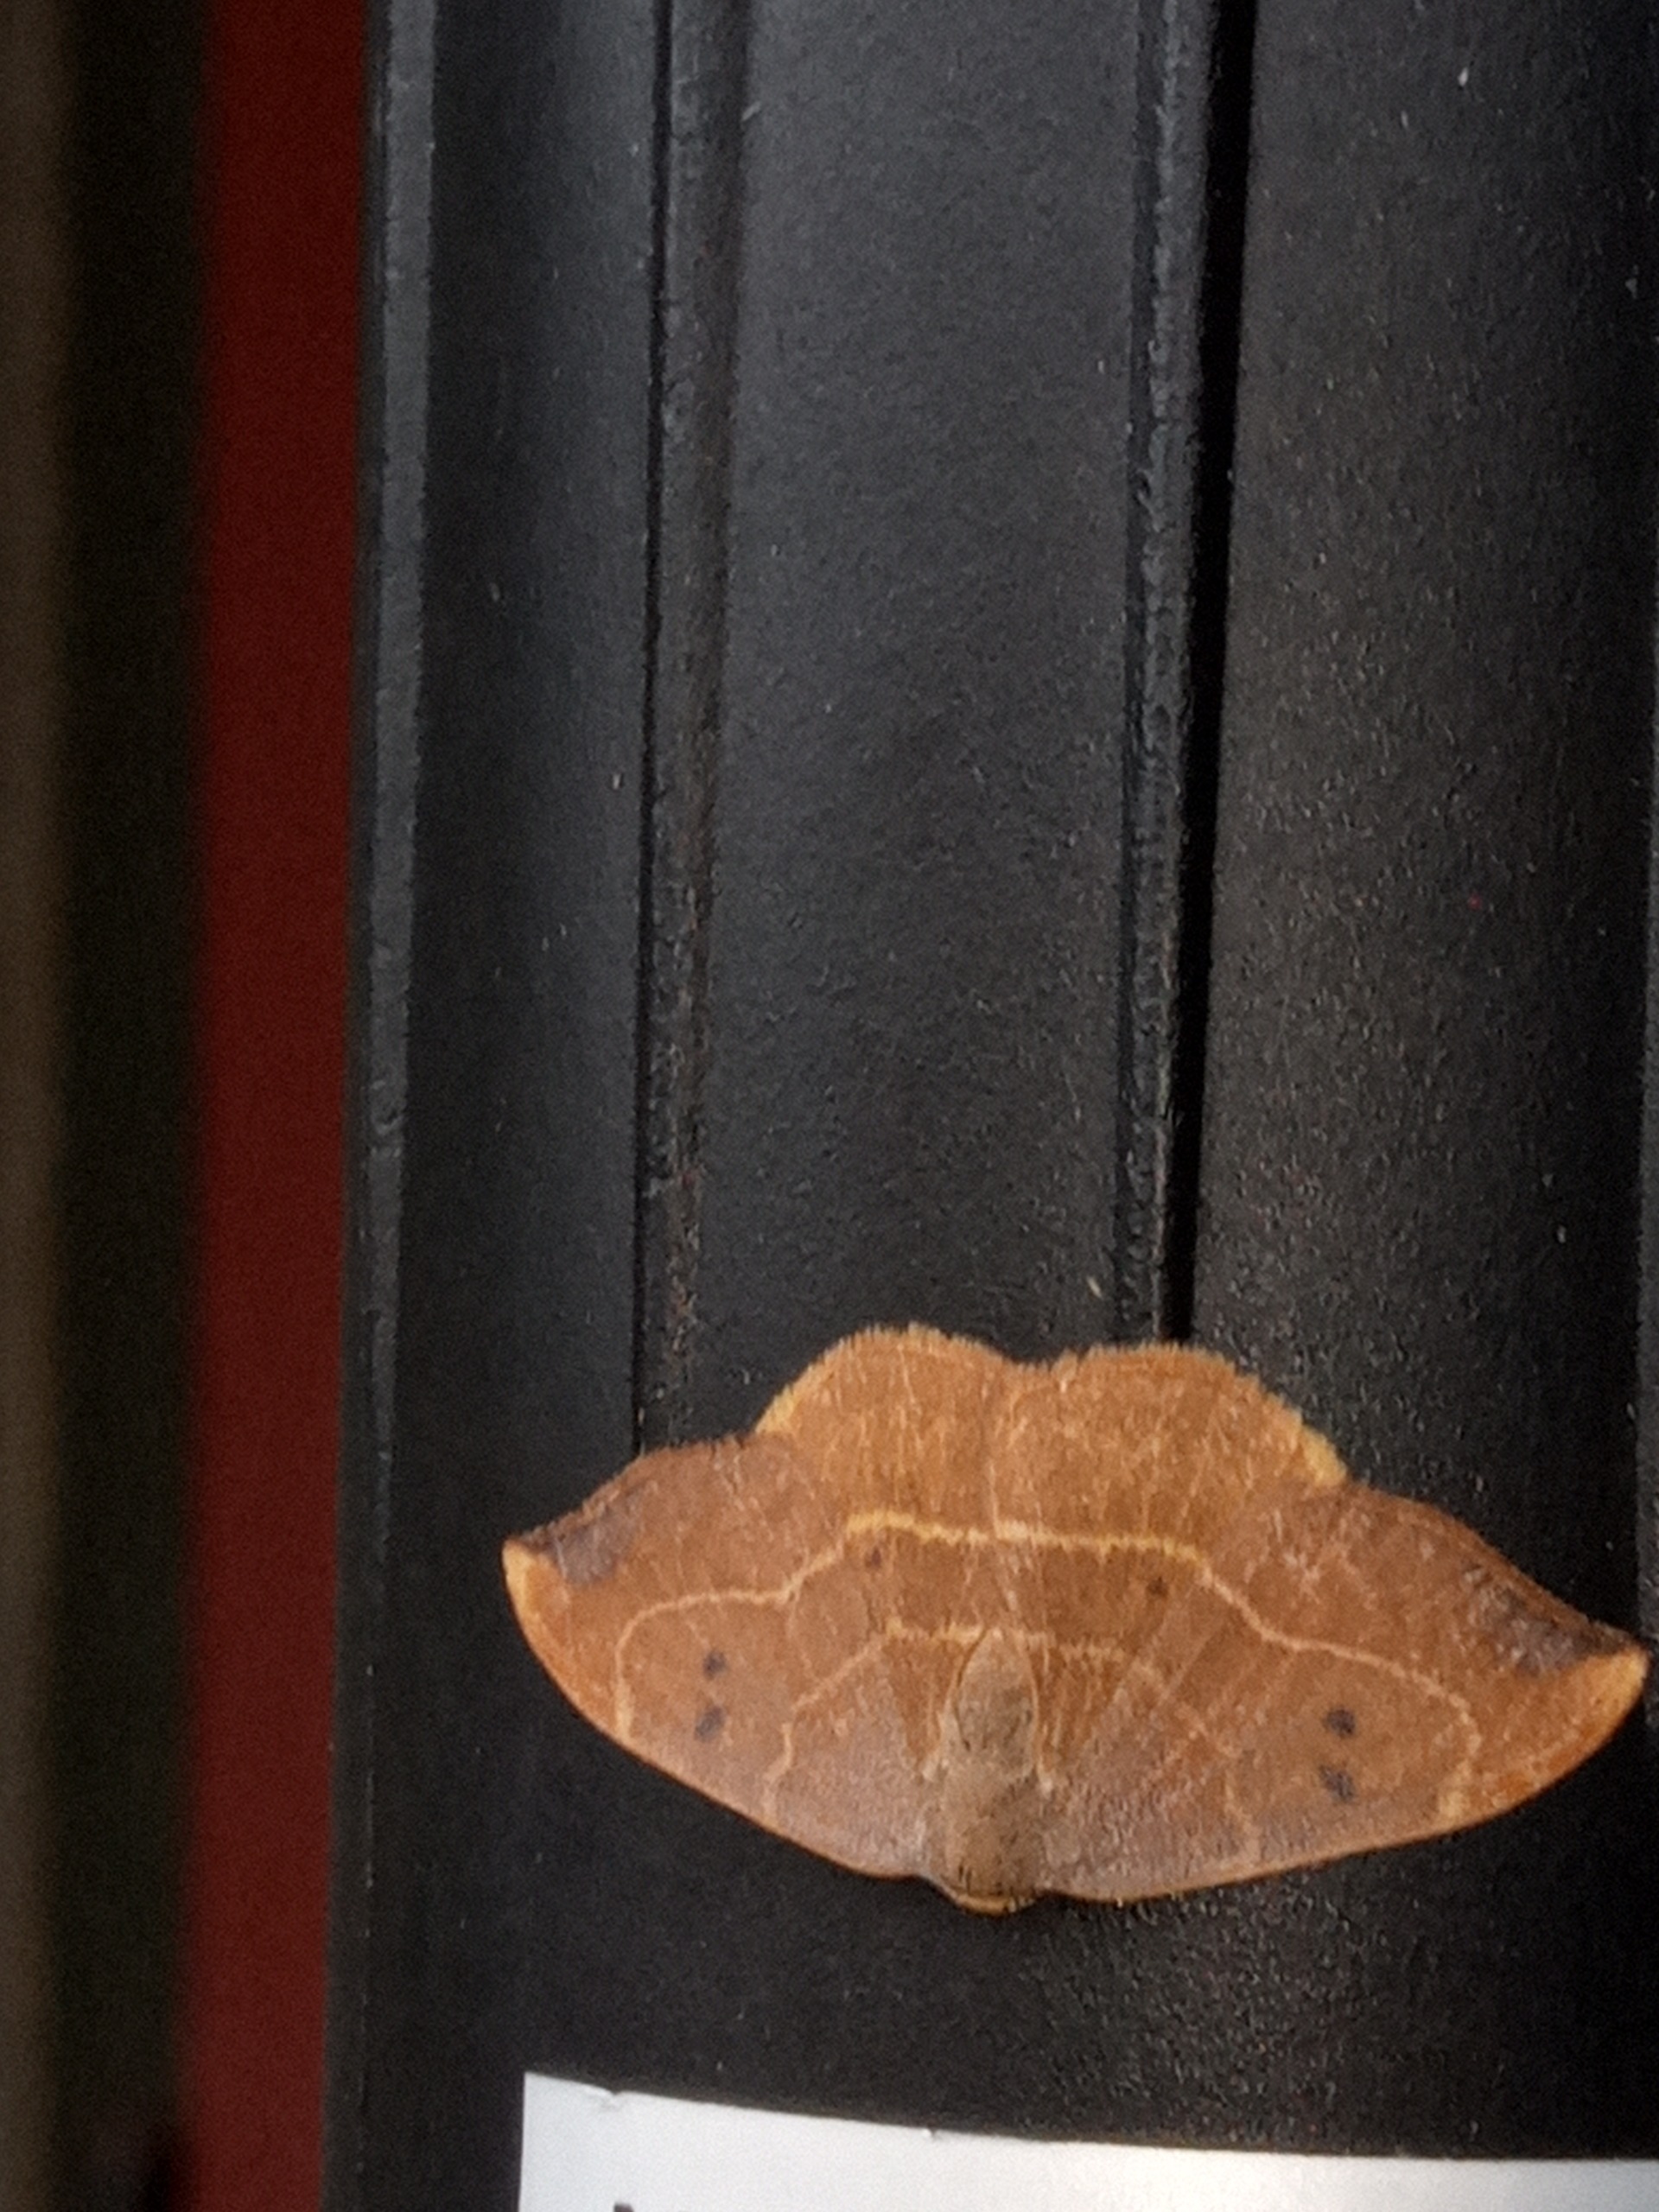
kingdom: Animalia
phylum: Arthropoda
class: Insecta
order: Lepidoptera
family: Drepanidae
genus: Watsonalla
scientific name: Watsonalla binaria
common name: Toplettet seglvinge
